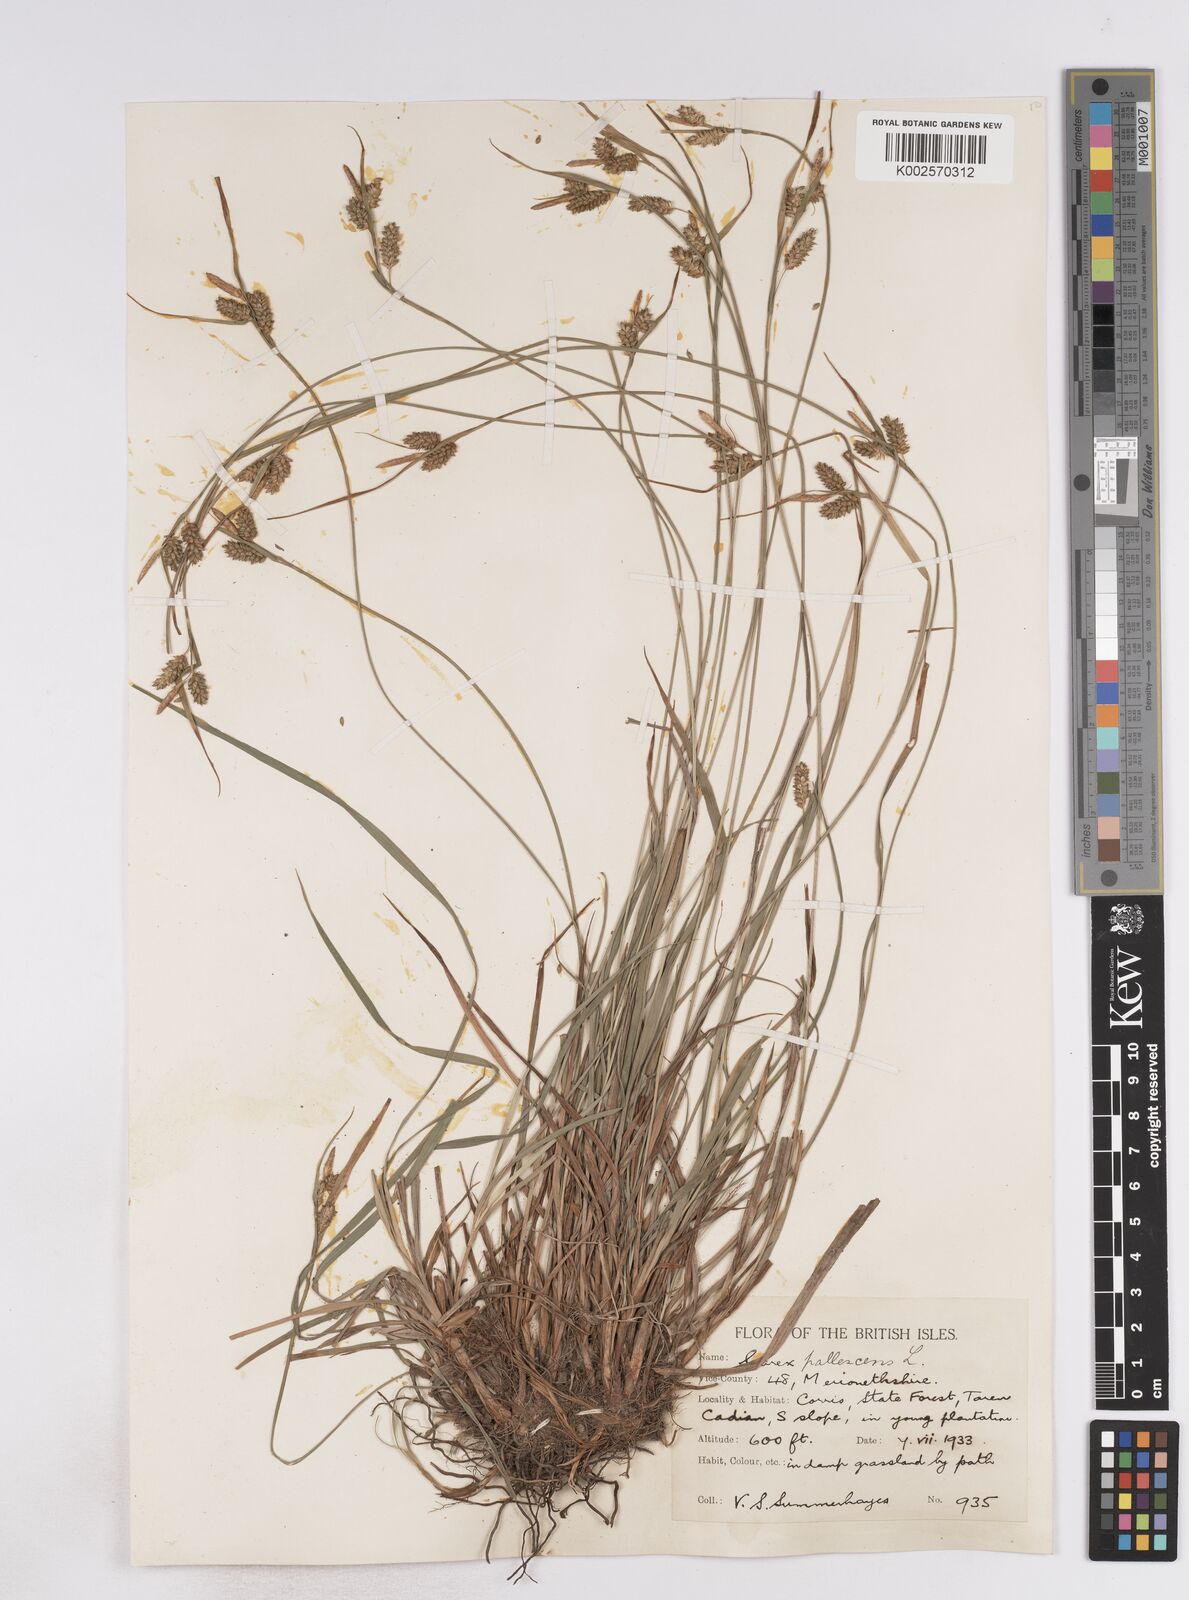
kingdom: Plantae
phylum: Tracheophyta
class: Liliopsida
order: Poales
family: Cyperaceae
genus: Carex
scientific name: Carex pallescens
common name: Pale sedge
